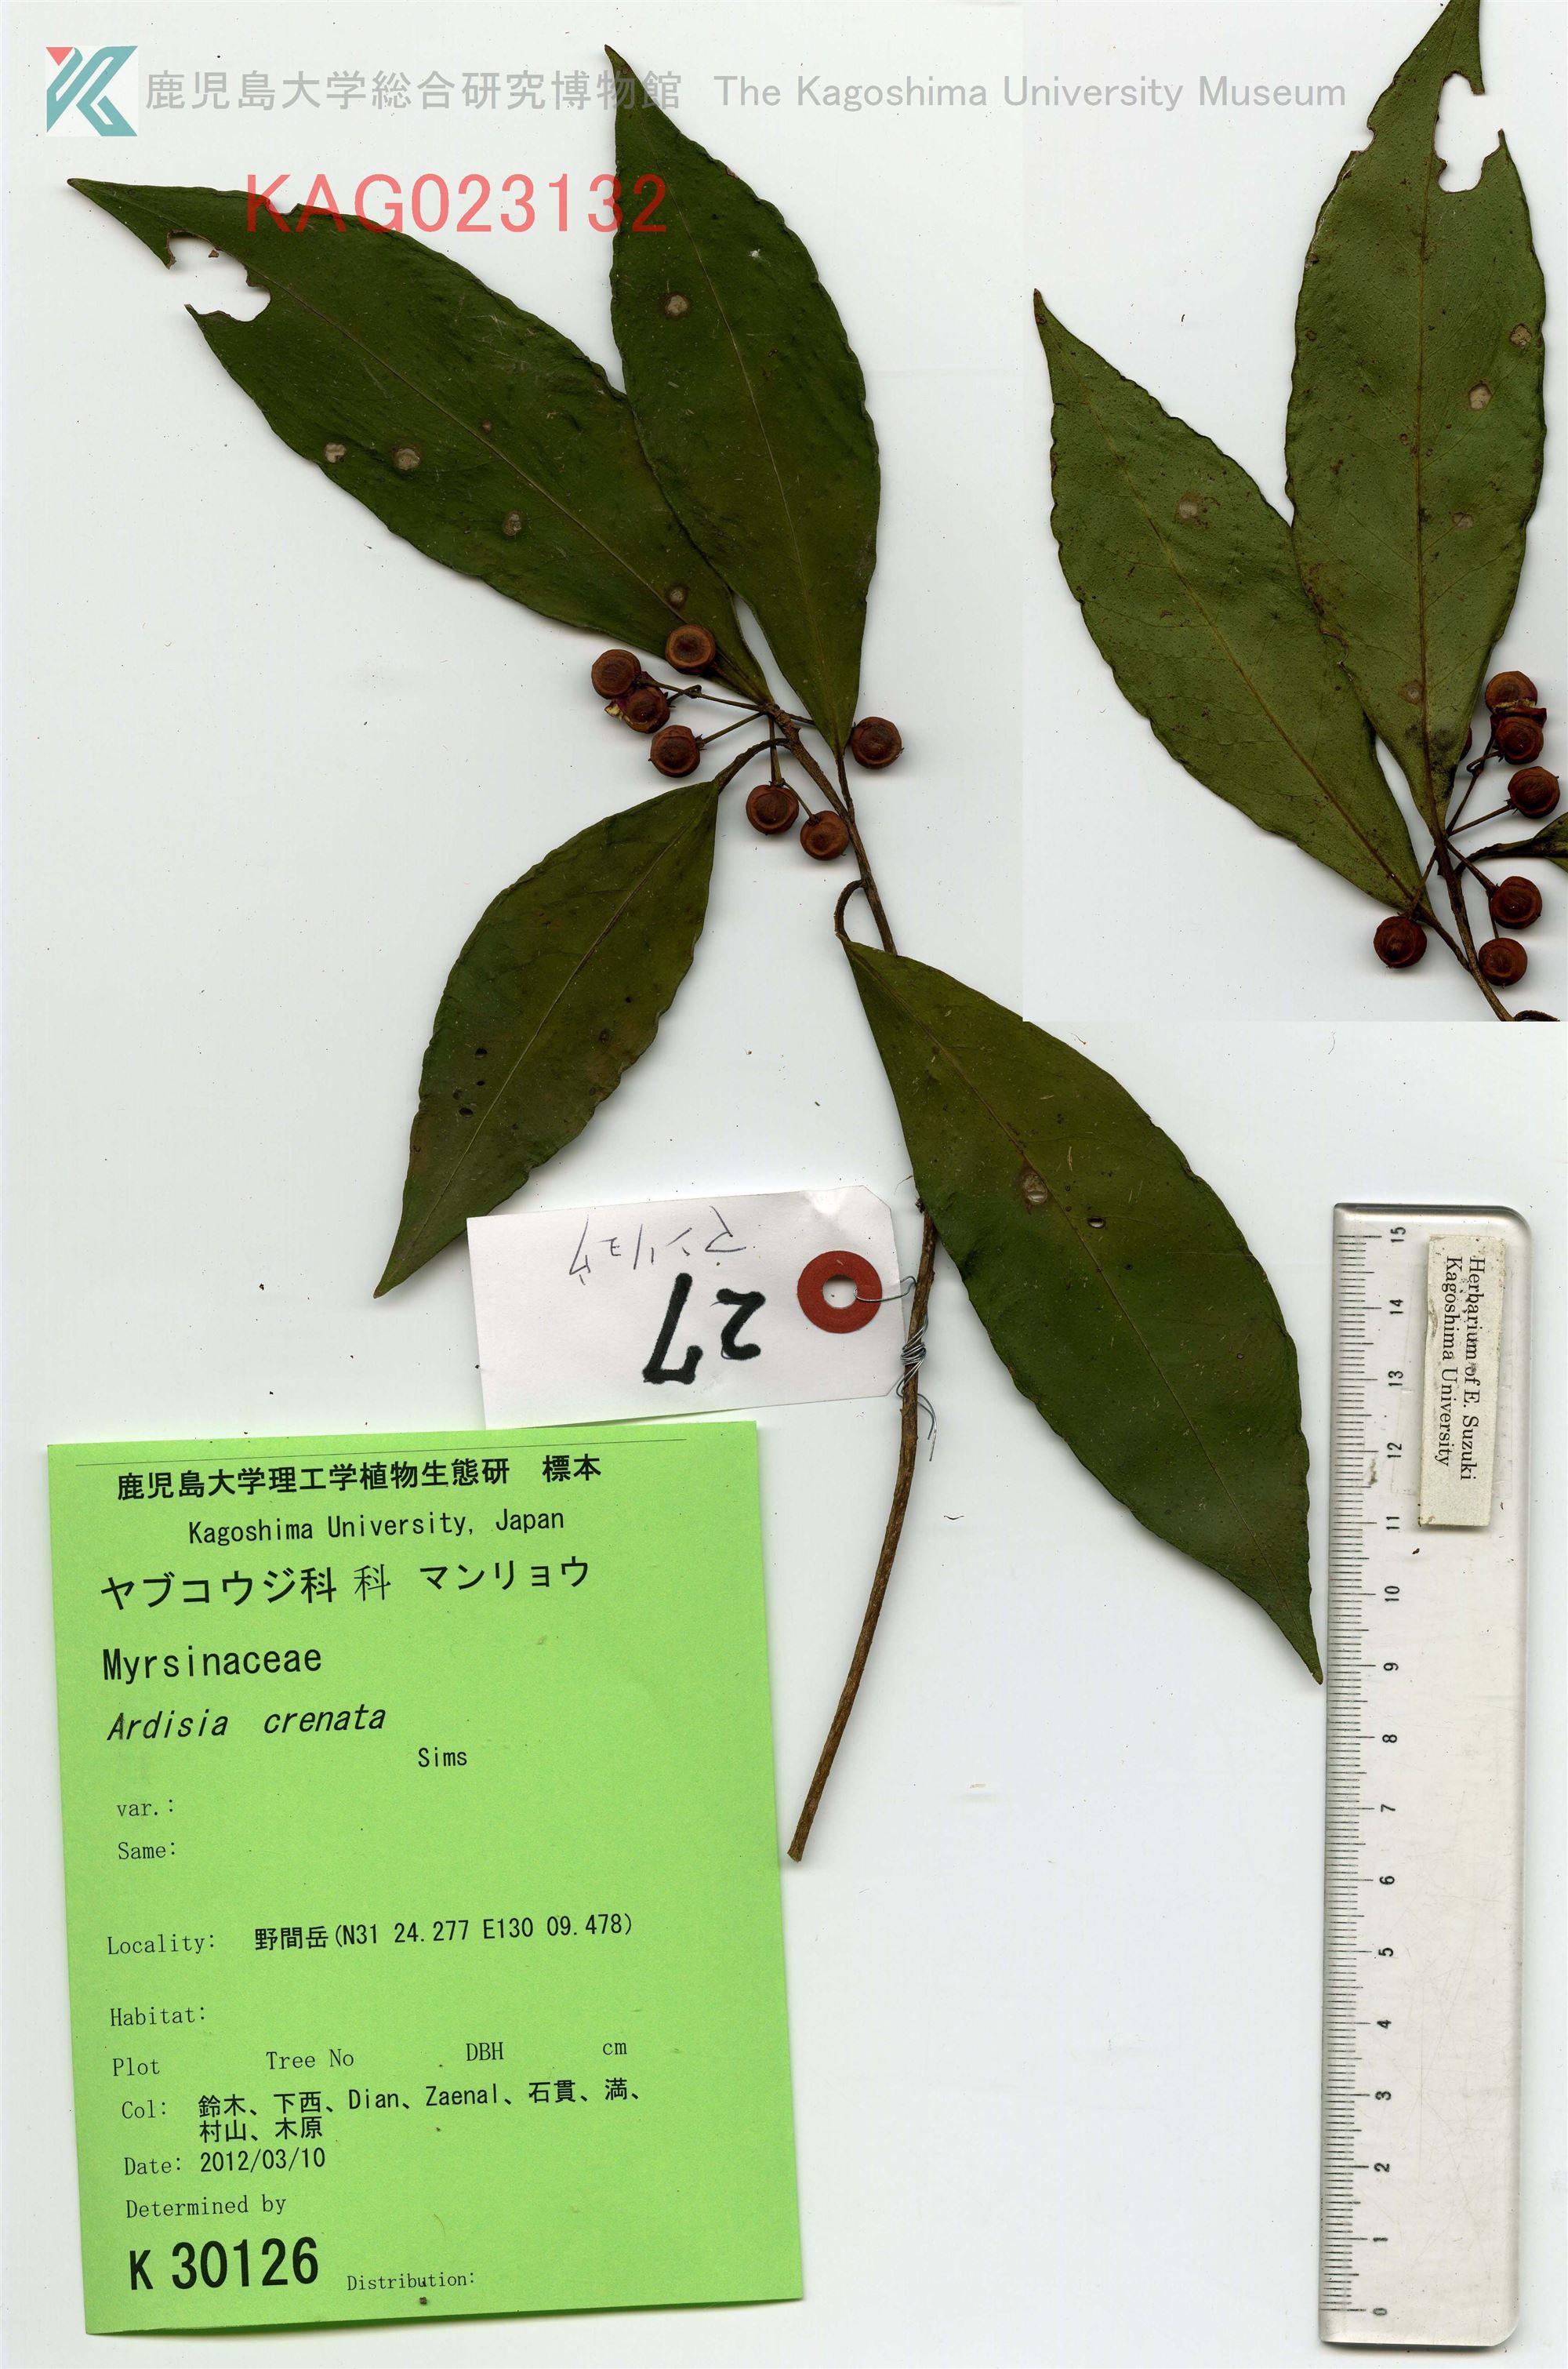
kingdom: Plantae
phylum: Tracheophyta
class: Magnoliopsida
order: Ericales
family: Primulaceae
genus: Ardisia
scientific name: Ardisia crenata
